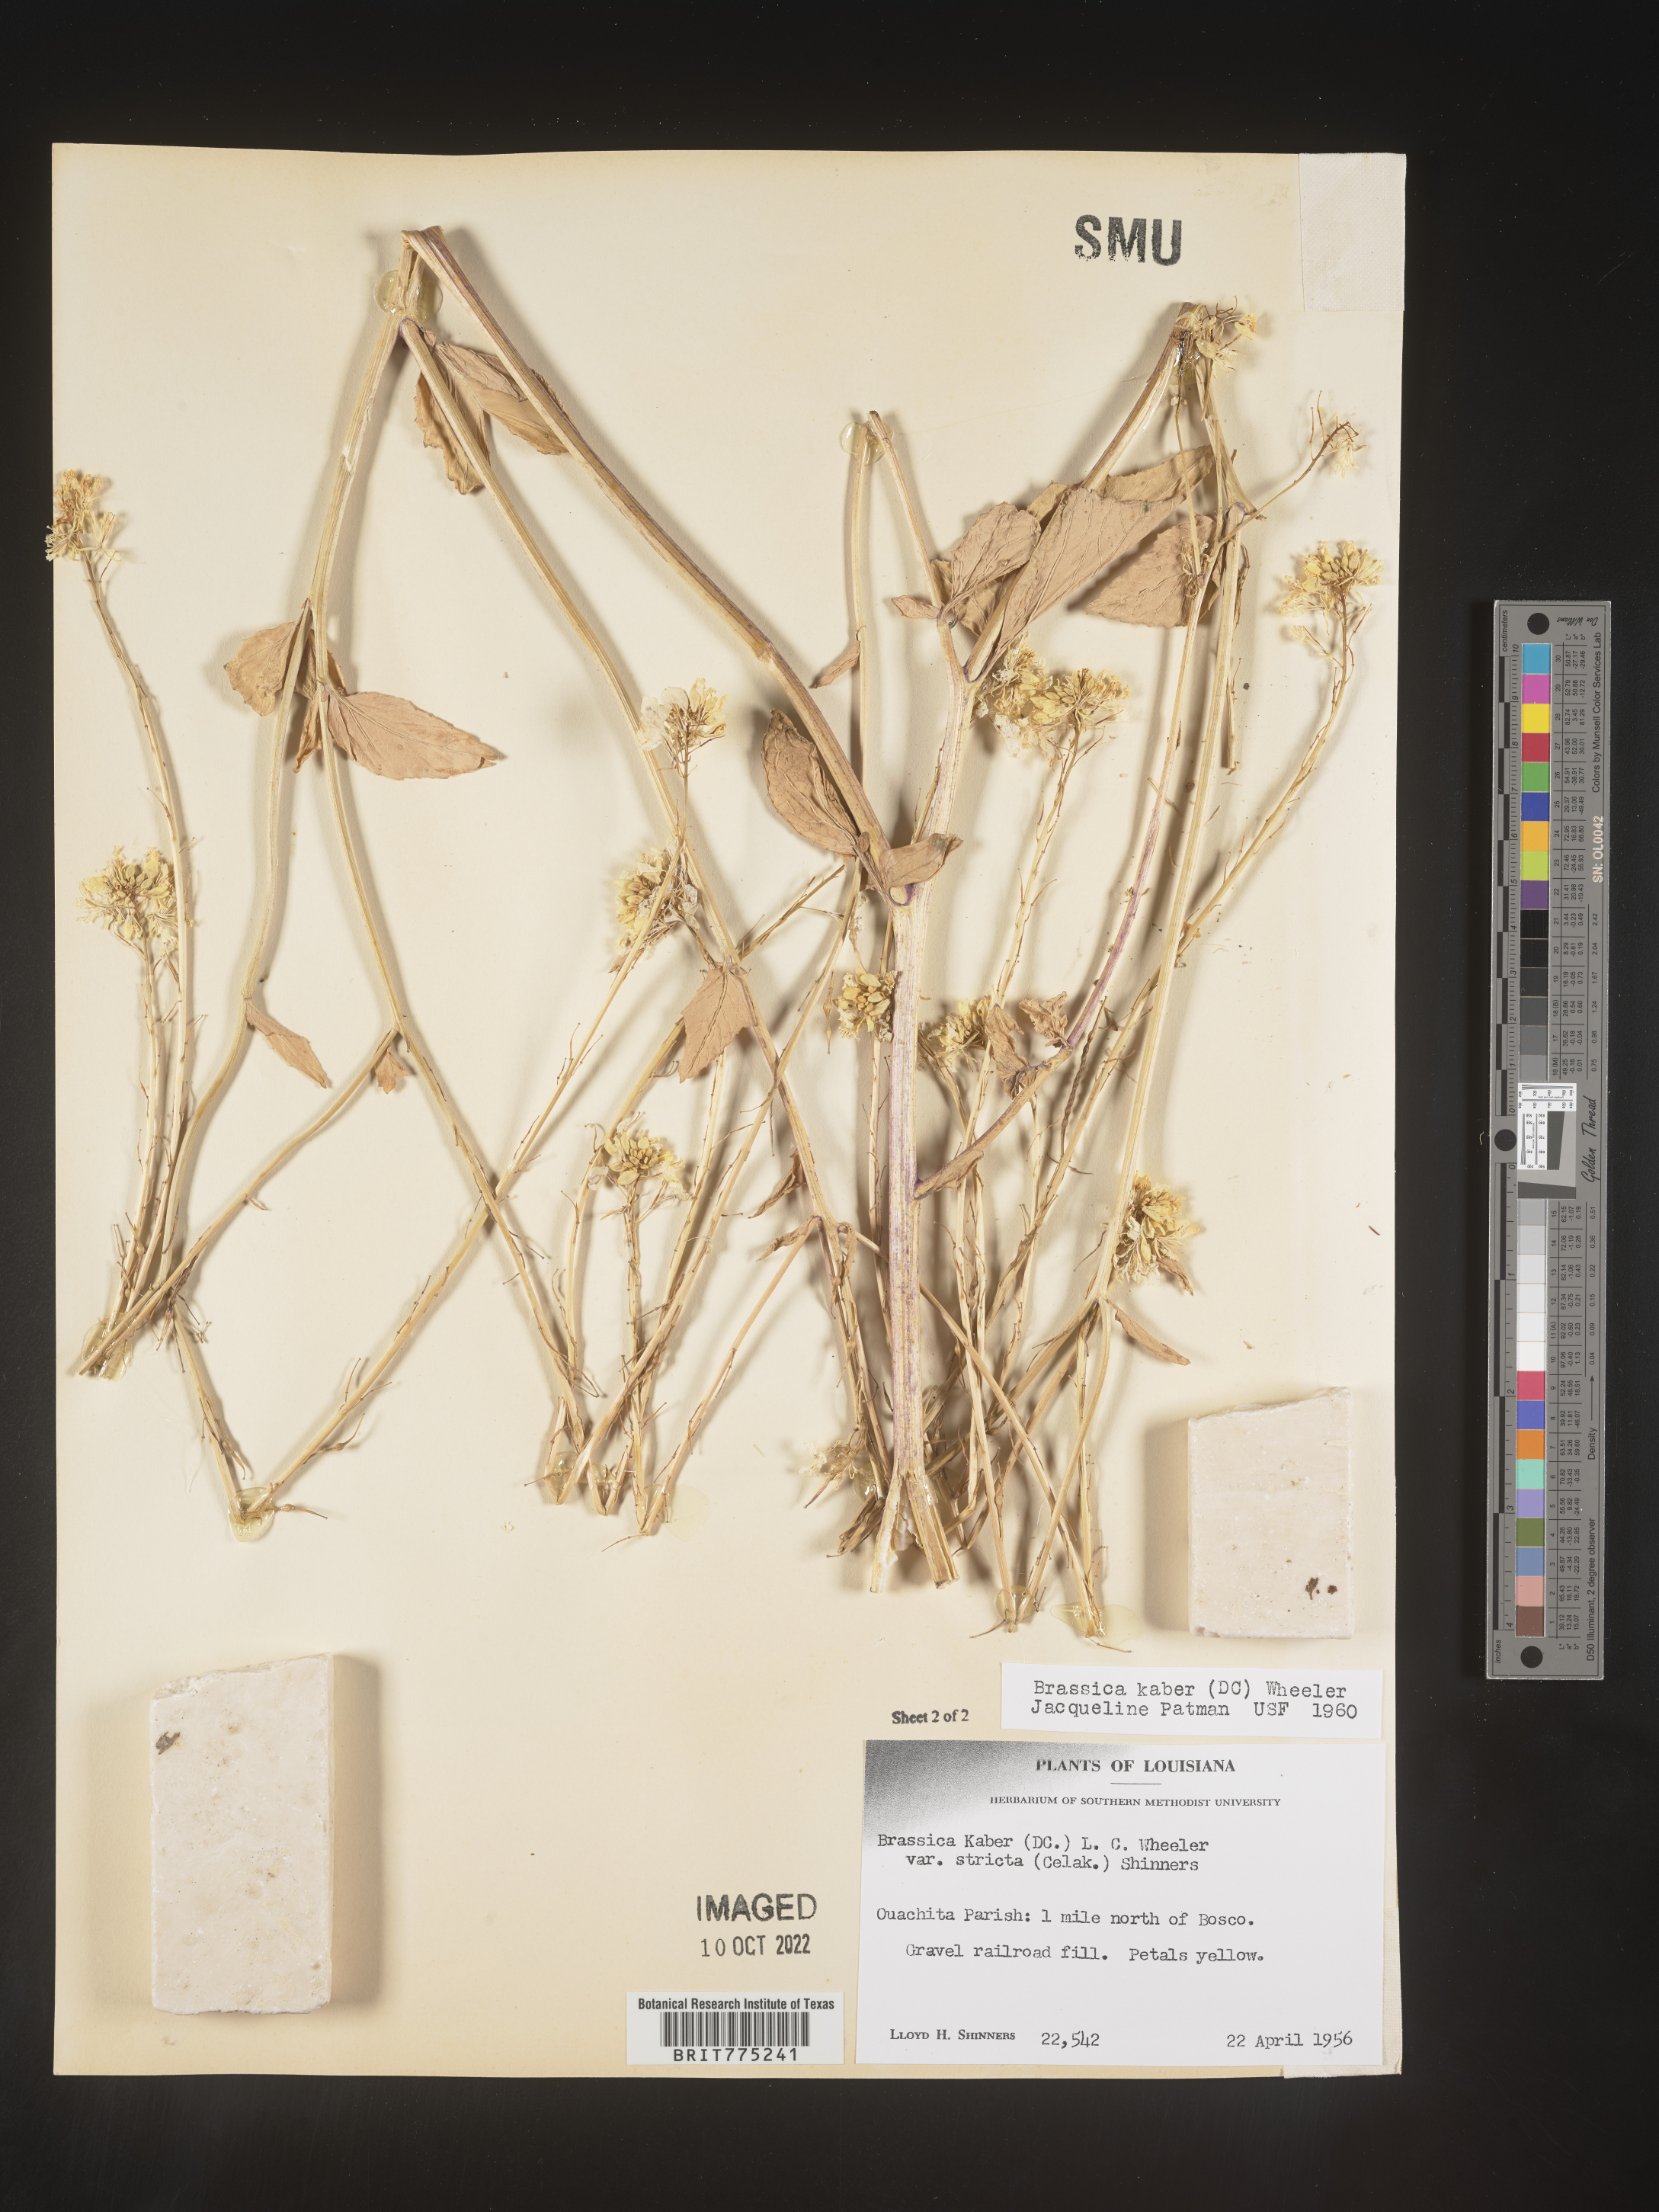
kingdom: Plantae
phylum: Tracheophyta
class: Magnoliopsida
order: Brassicales
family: Brassicaceae
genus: Sinapis
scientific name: Sinapis arvensis
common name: Charlock
